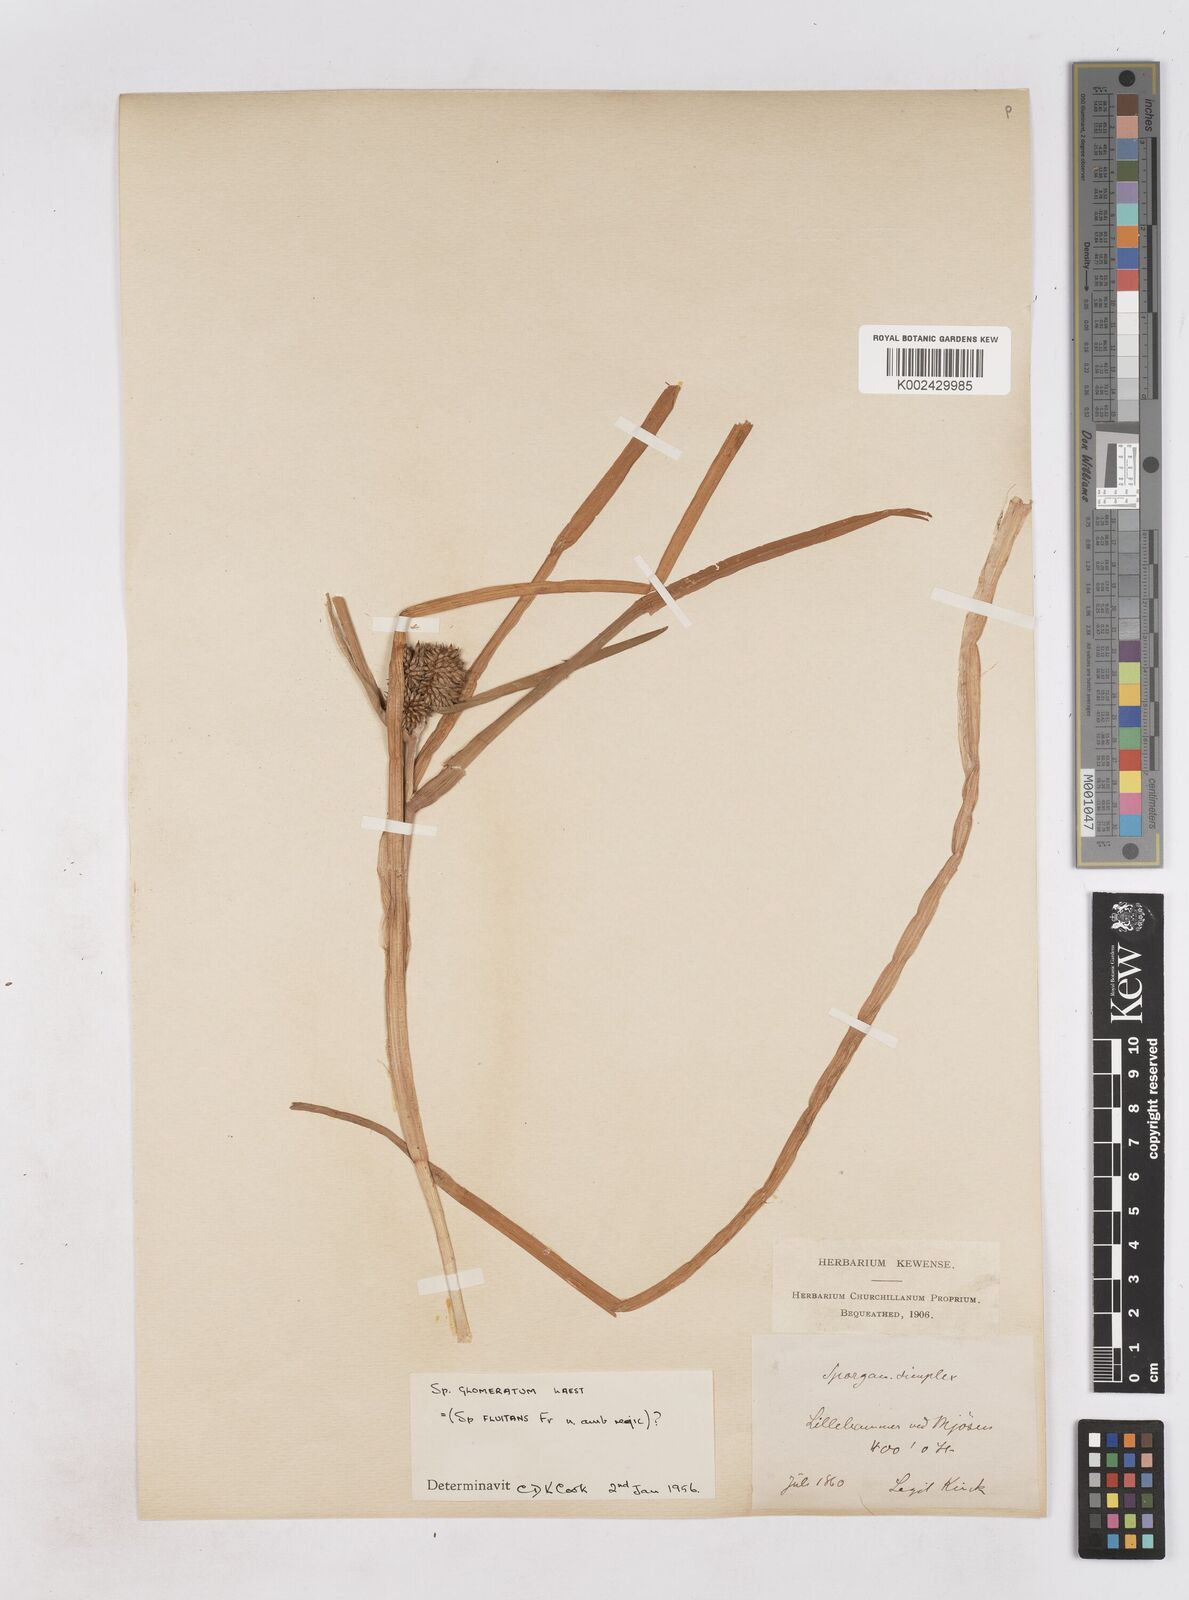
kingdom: Plantae
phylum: Tracheophyta
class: Liliopsida
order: Poales
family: Typhaceae
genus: Sparganium
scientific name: Sparganium angustifolium
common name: Floating bur-reed
